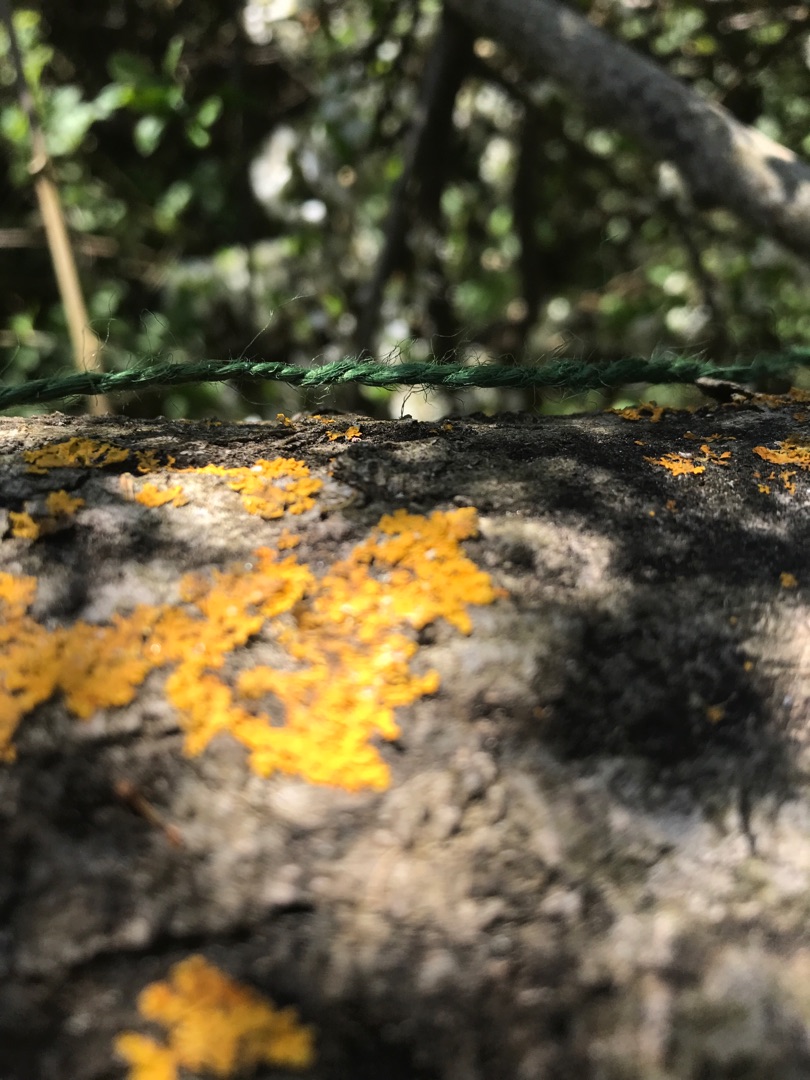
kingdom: Fungi
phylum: Ascomycota
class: Lecanoromycetes
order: Teloschistales
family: Teloschistaceae
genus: Xanthoria
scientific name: Xanthoria parietina
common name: Almindelig væggelav
